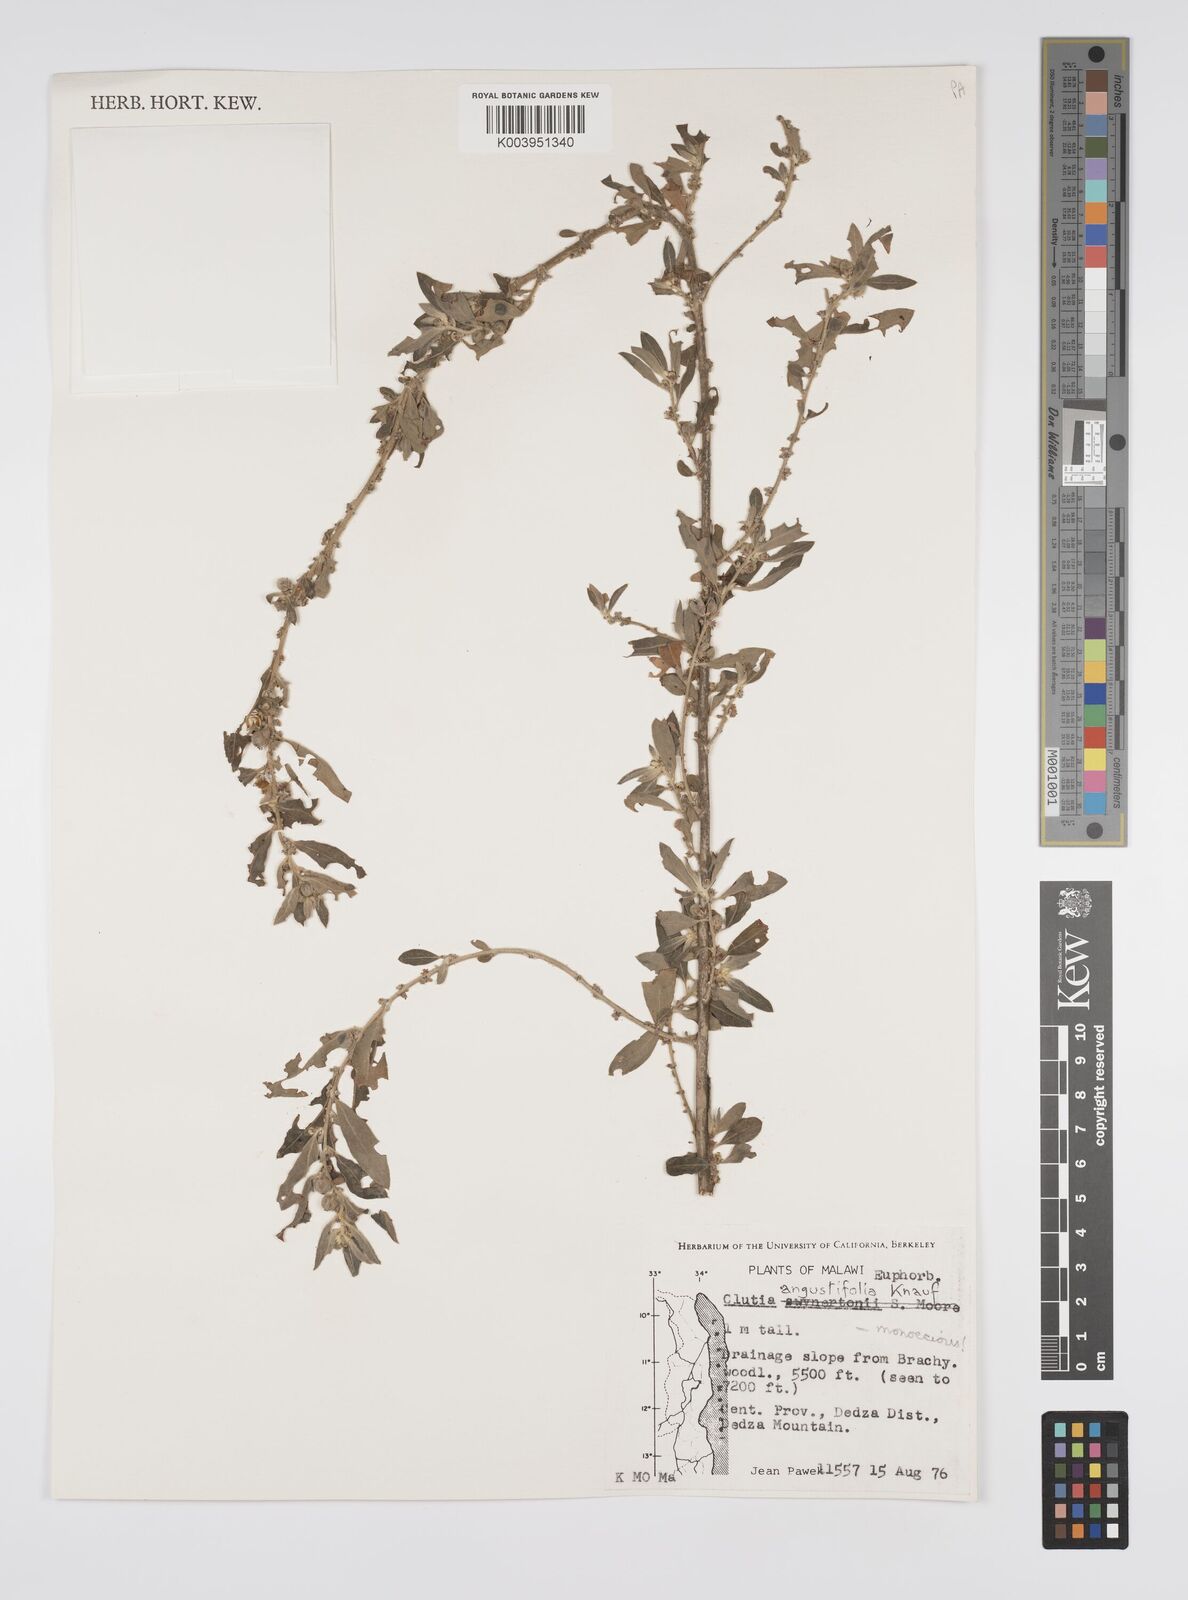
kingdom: Plantae
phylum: Tracheophyta
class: Magnoliopsida
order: Malpighiales
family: Peraceae
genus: Clutia
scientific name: Clutia angustifolia
